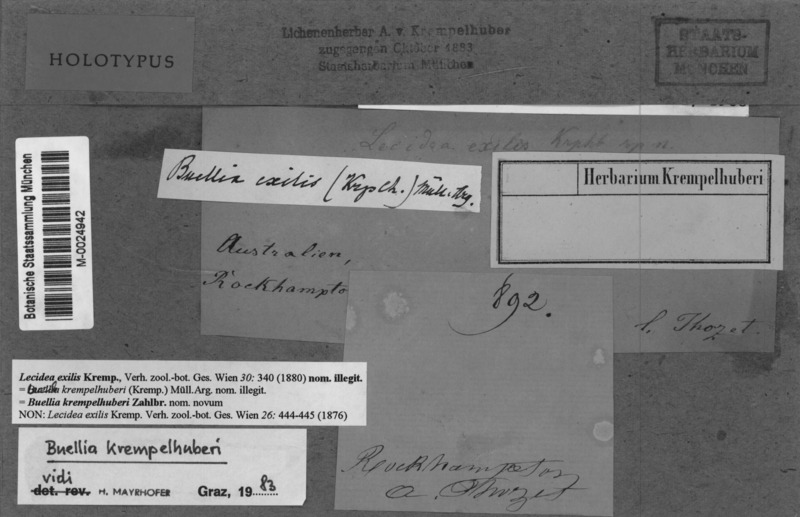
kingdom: Fungi
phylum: Ascomycota
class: Lecanoromycetes
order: Caliciales
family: Caliciaceae
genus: Buellia
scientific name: Buellia krempelhuberi
